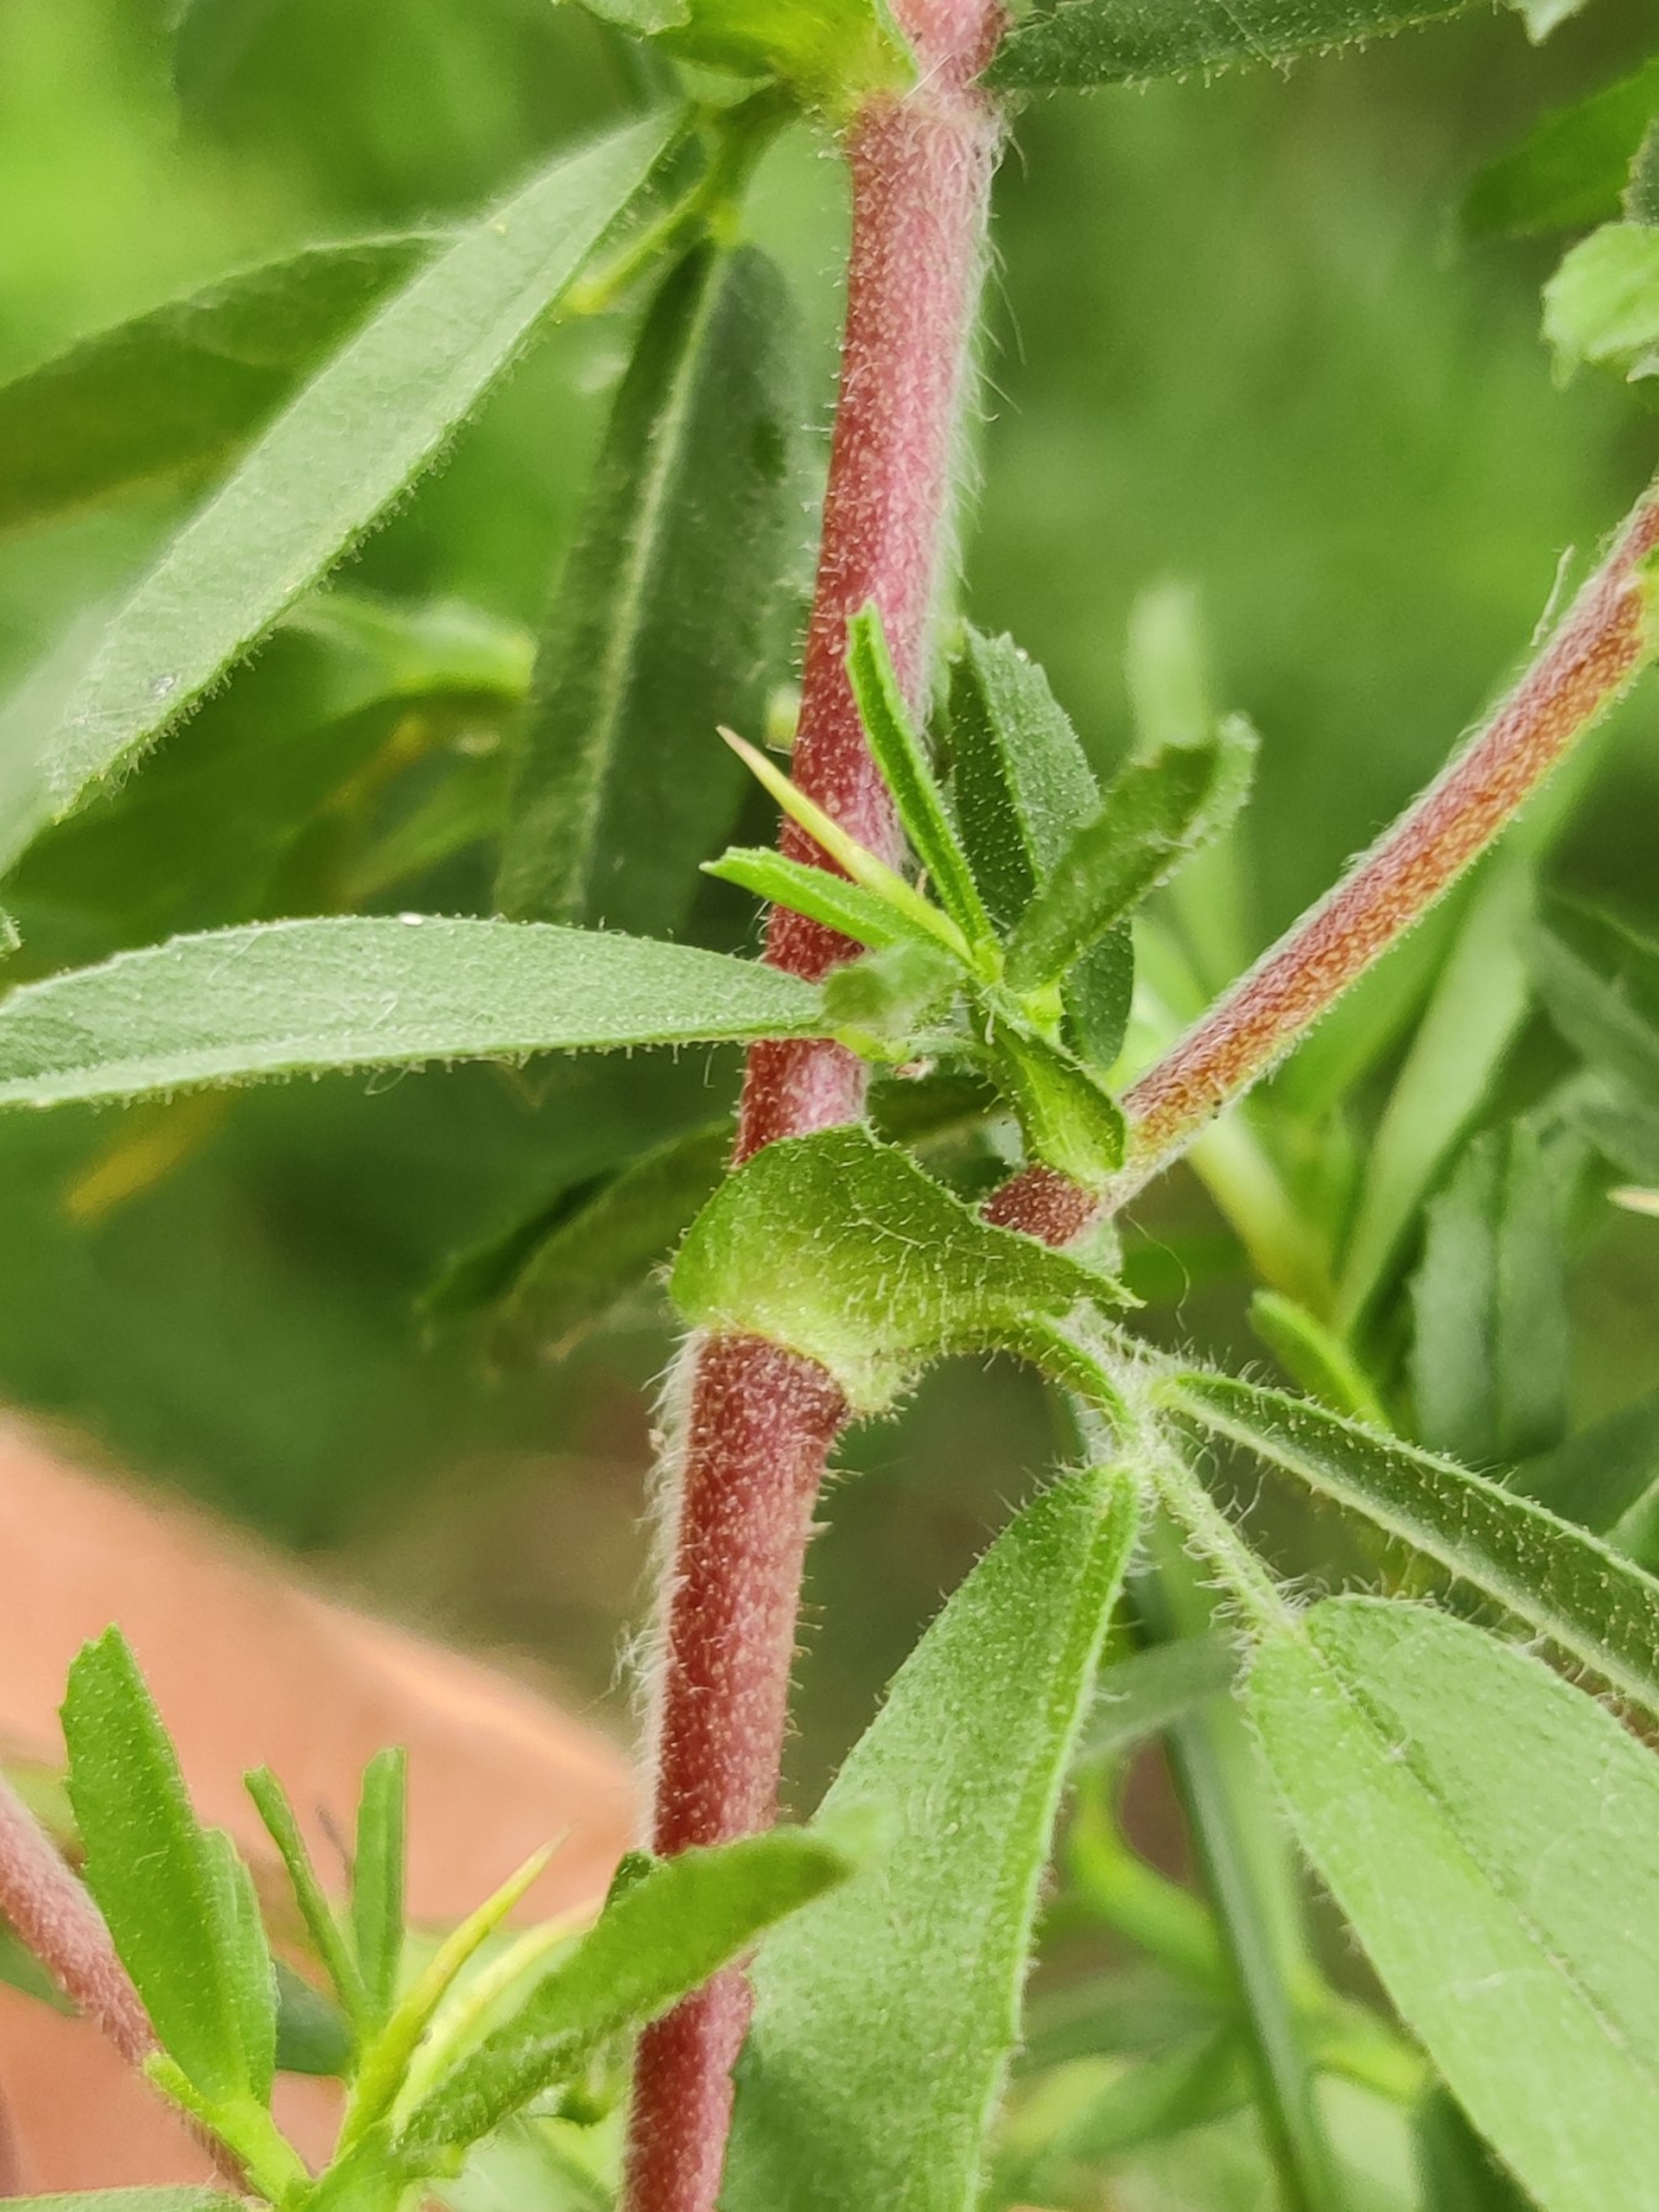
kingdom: Plantae
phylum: Tracheophyta
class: Magnoliopsida
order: Fabales
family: Fabaceae
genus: Ononis
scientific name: Ononis spinosa
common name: Mark-krageklo
